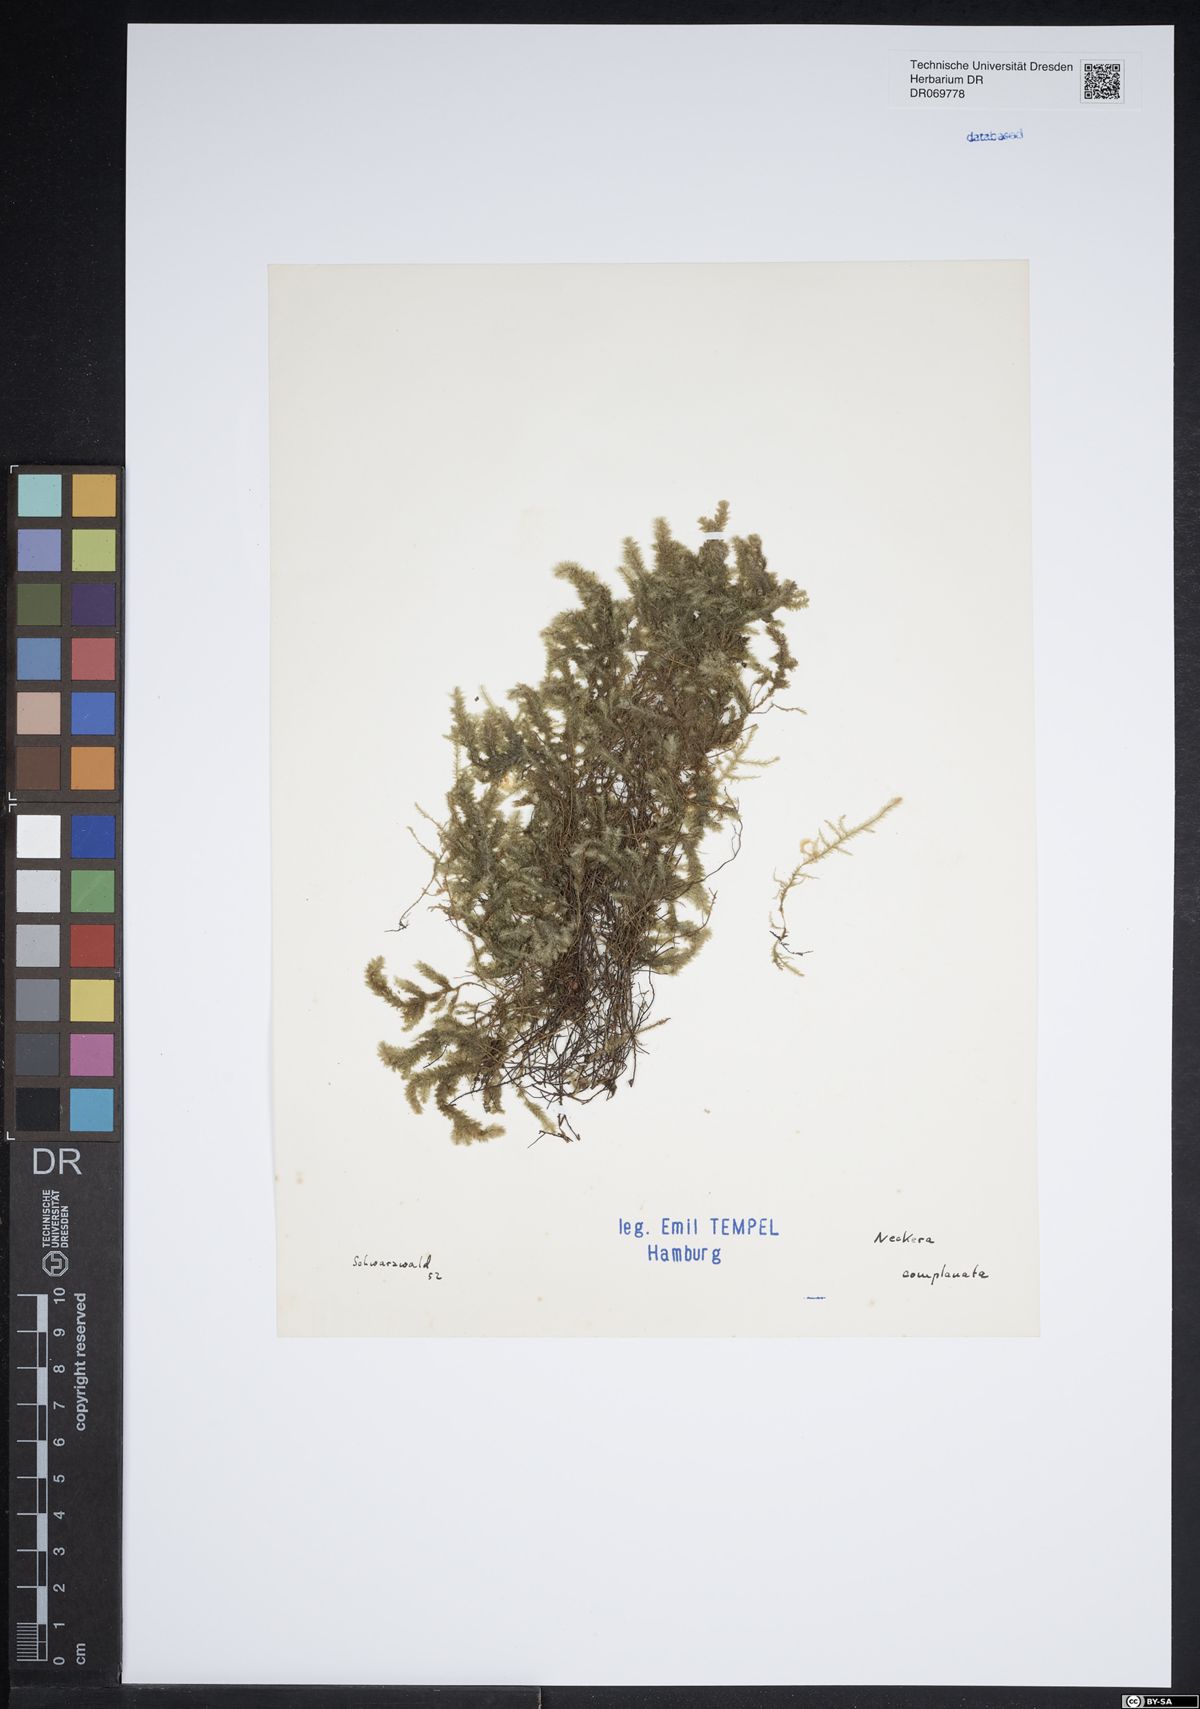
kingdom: Plantae
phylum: Bryophyta
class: Bryopsida
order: Hypnales
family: Neckeraceae
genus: Alleniella
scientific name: Alleniella complanata
